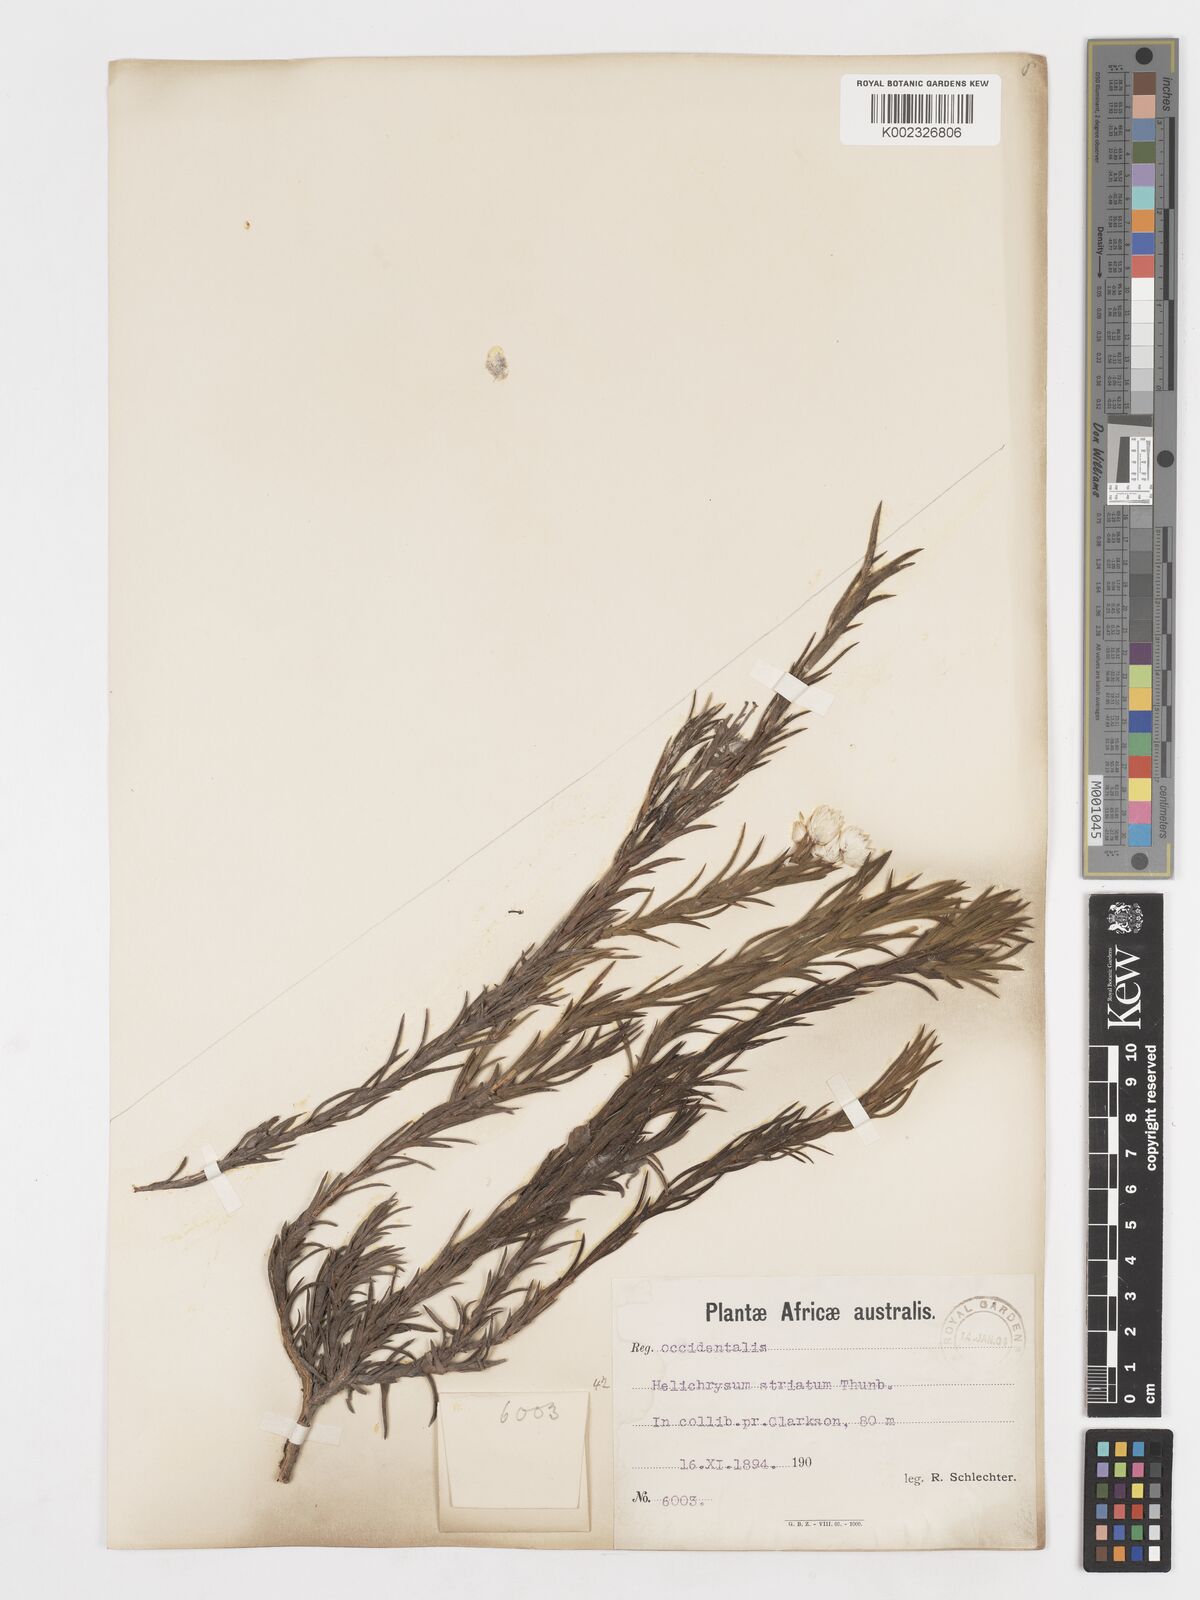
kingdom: Plantae
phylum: Tracheophyta
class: Magnoliopsida
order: Asterales
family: Asteraceae
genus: Achyranthemum
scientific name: Achyranthemum striatum
